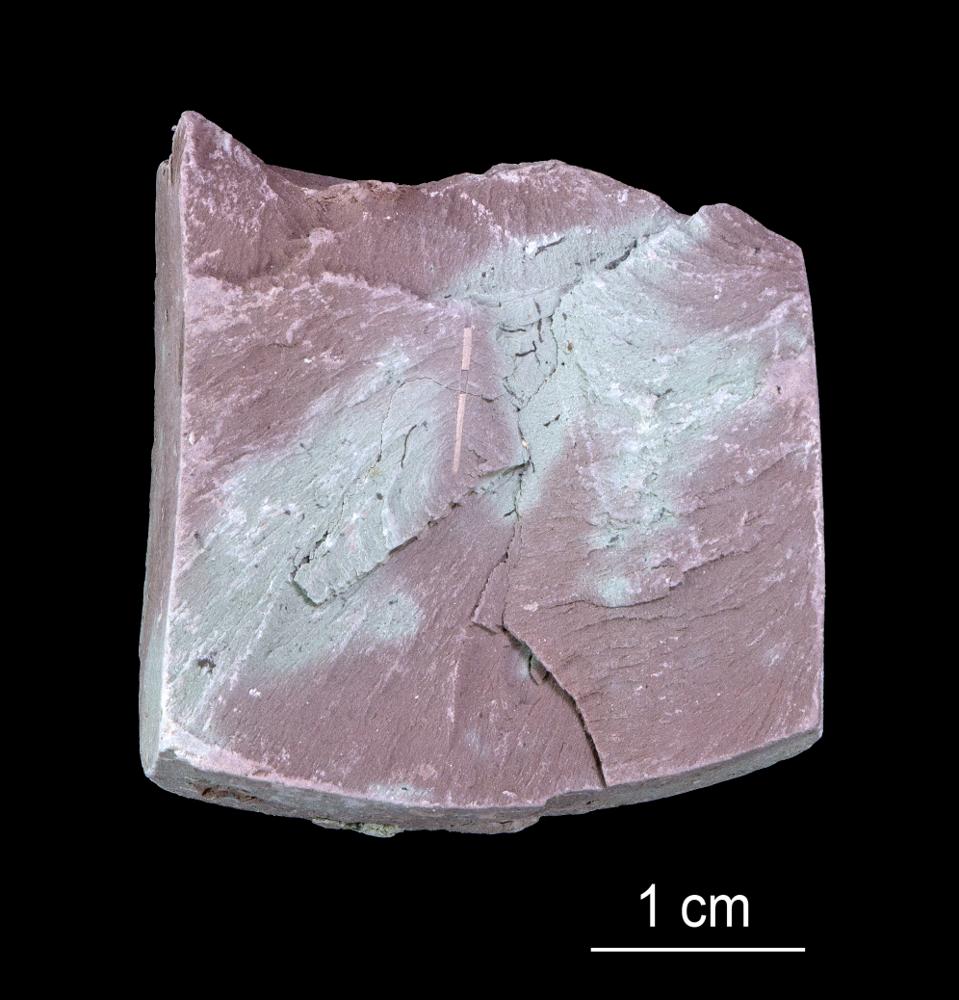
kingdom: Chromista
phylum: Foraminifera
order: Astrorhizida
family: Hyperamminidae
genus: Platysolenites
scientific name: Platysolenites
